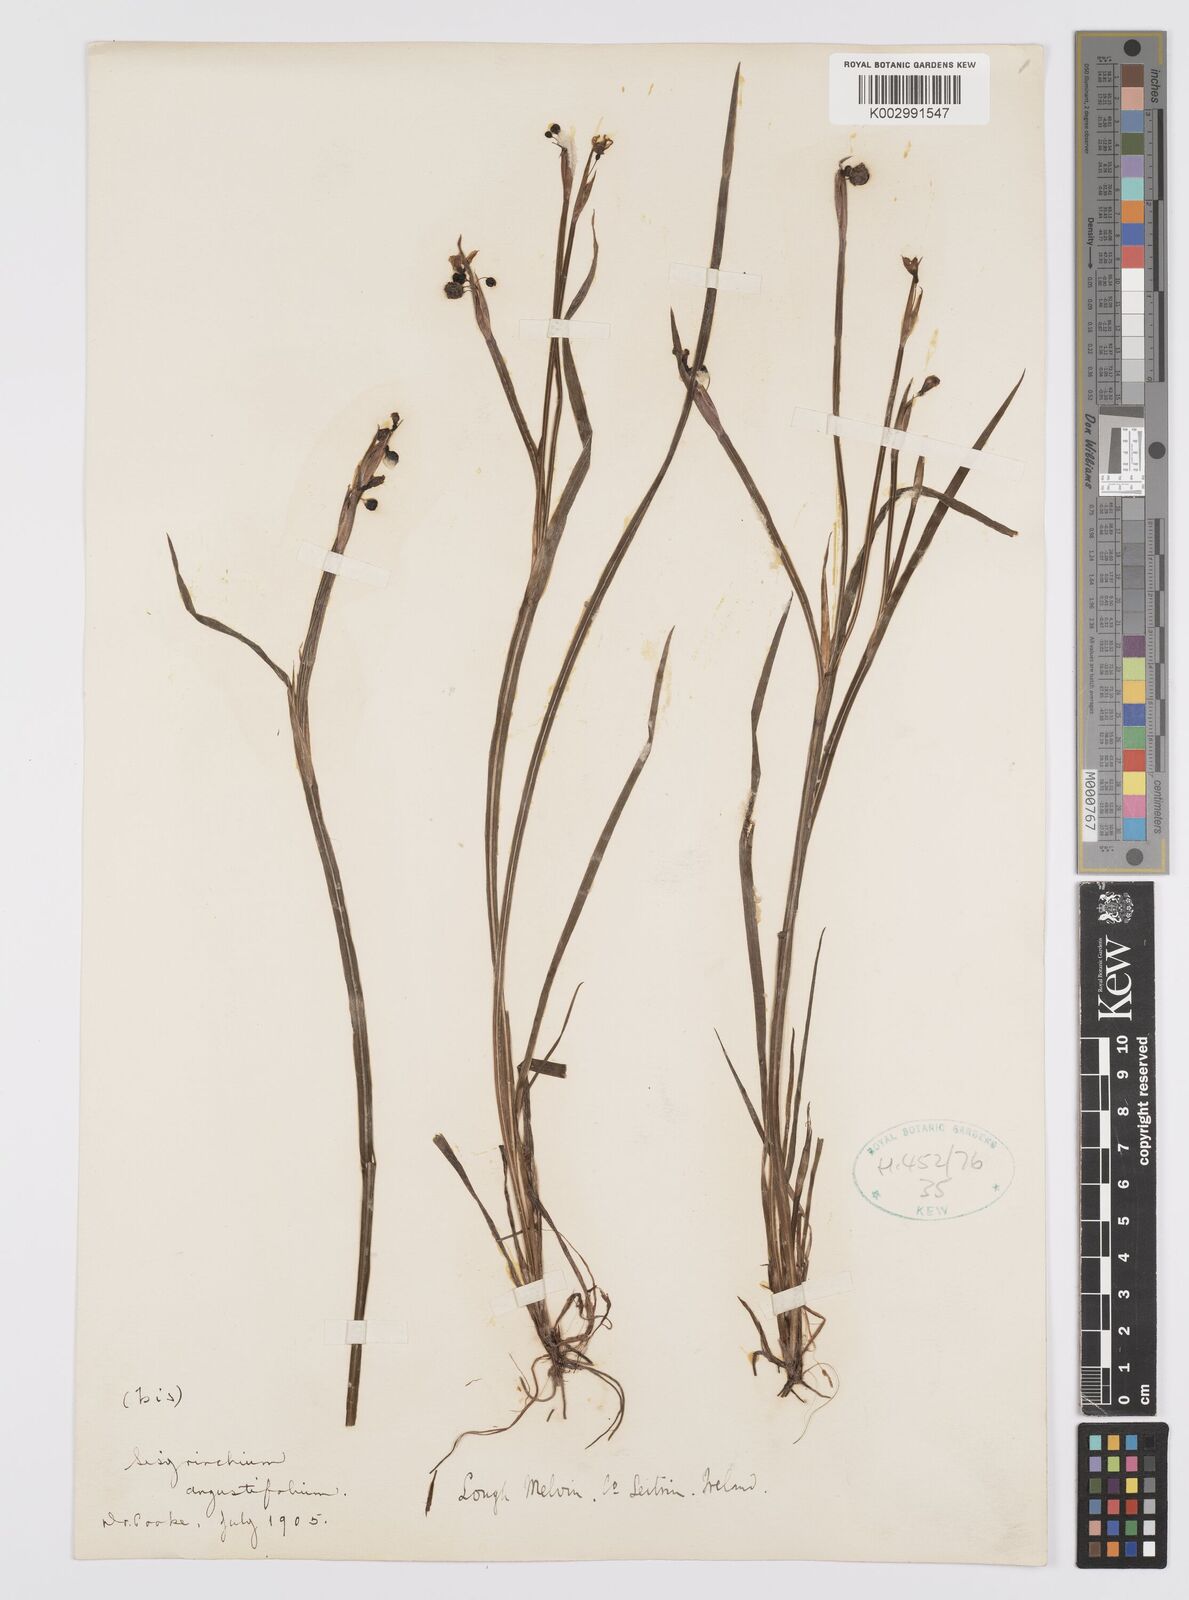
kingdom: Plantae
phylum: Tracheophyta
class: Liliopsida
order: Asparagales
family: Iridaceae
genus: Sisyrinchium
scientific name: Sisyrinchium angustifolium
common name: Narrow-leaf blue-eyed-grass
